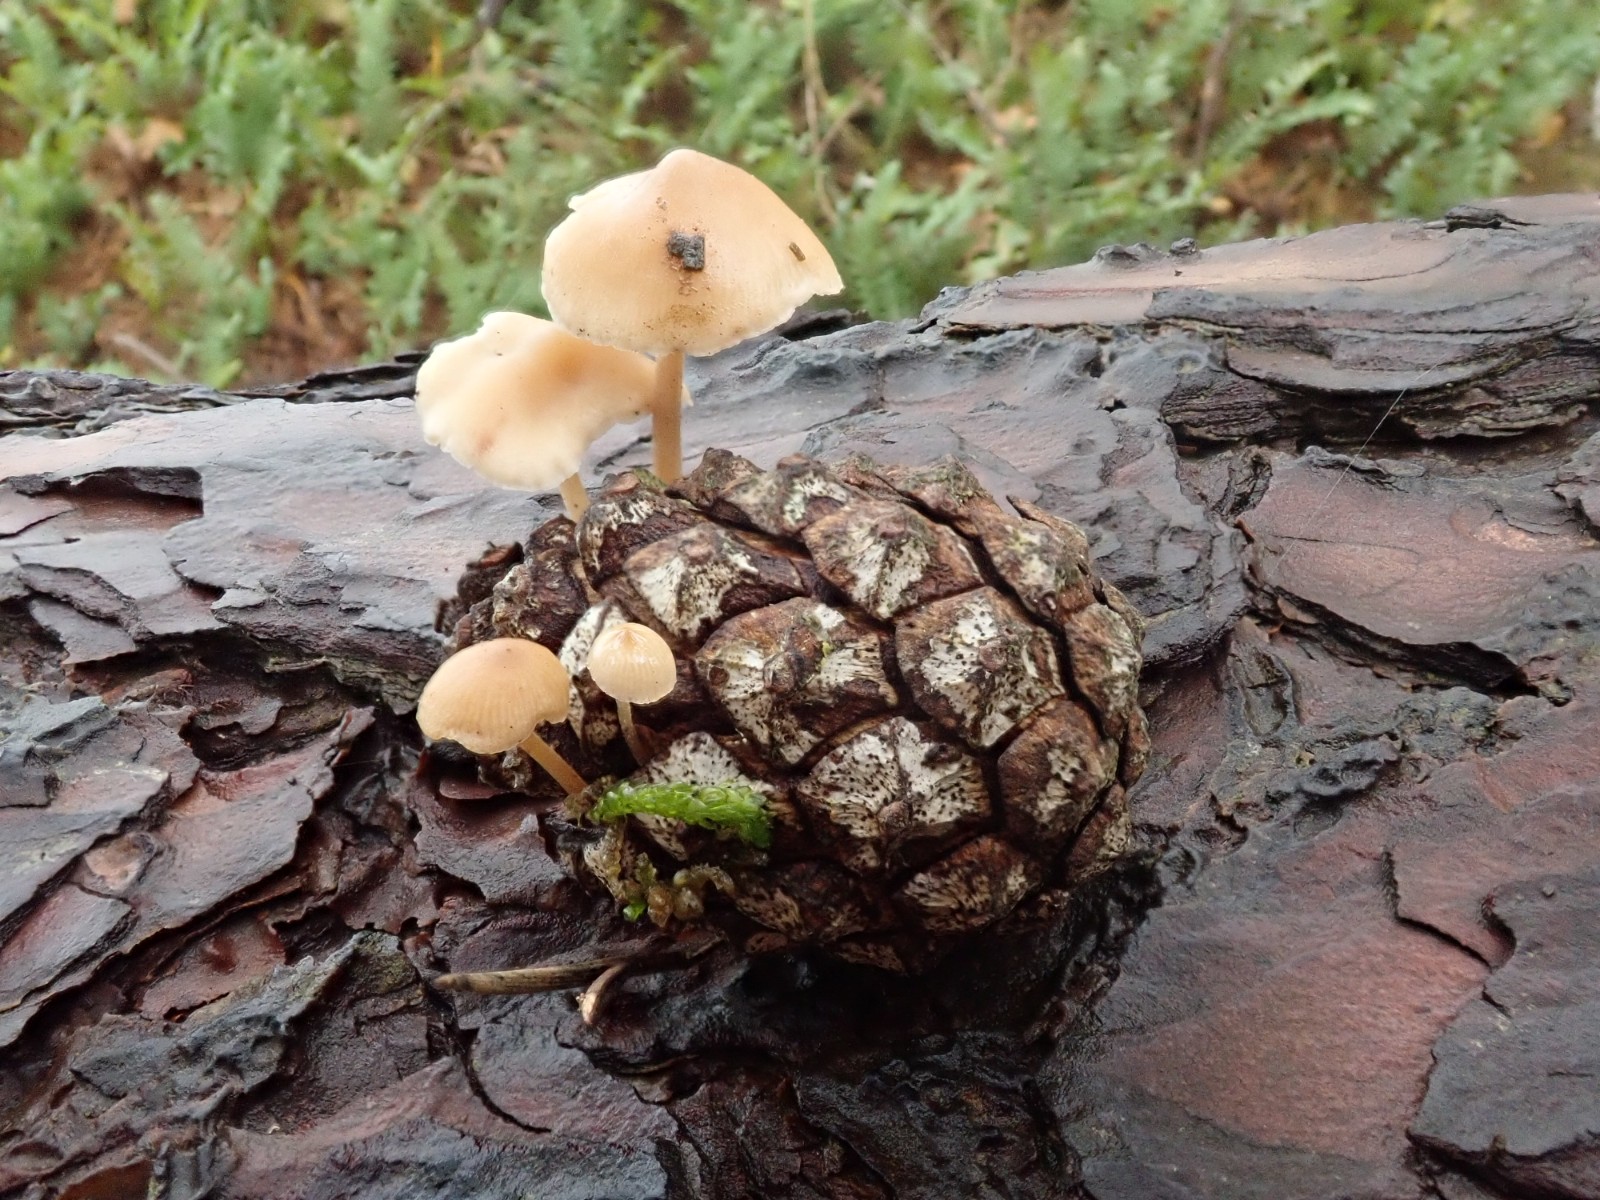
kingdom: Fungi
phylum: Basidiomycota
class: Agaricomycetes
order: Agaricales
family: Marasmiaceae
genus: Baeospora
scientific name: Baeospora myosura
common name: koglebruskhat
